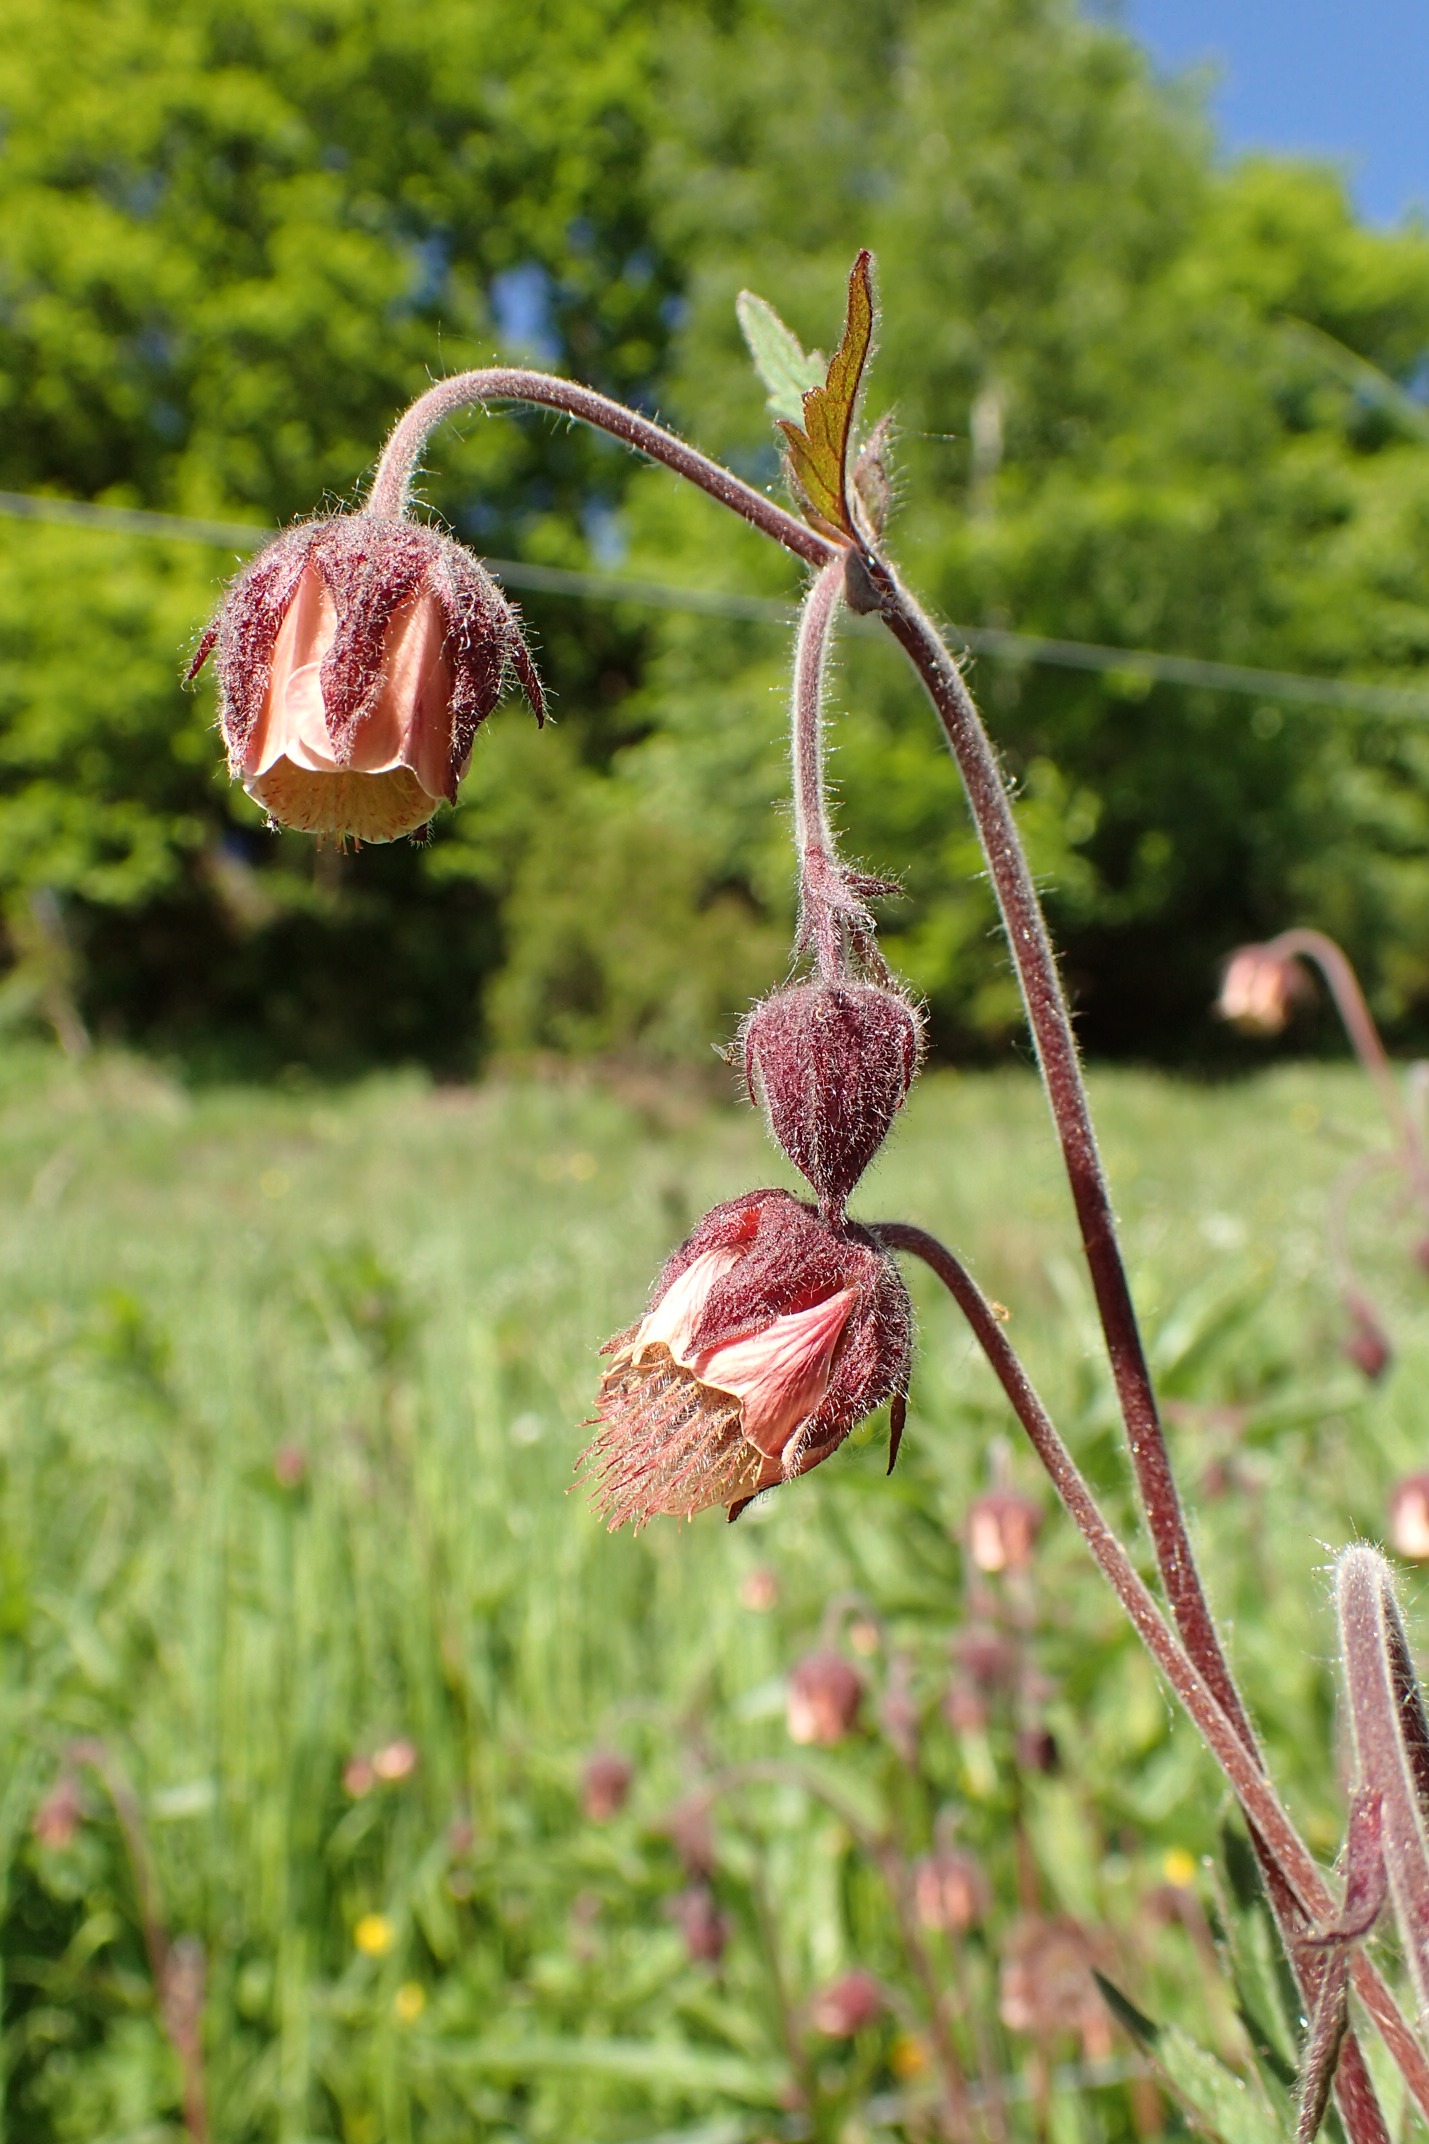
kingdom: Plantae
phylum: Tracheophyta
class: Magnoliopsida
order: Rosales
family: Rosaceae
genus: Geum
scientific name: Geum rivale
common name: Eng-nellikerod
